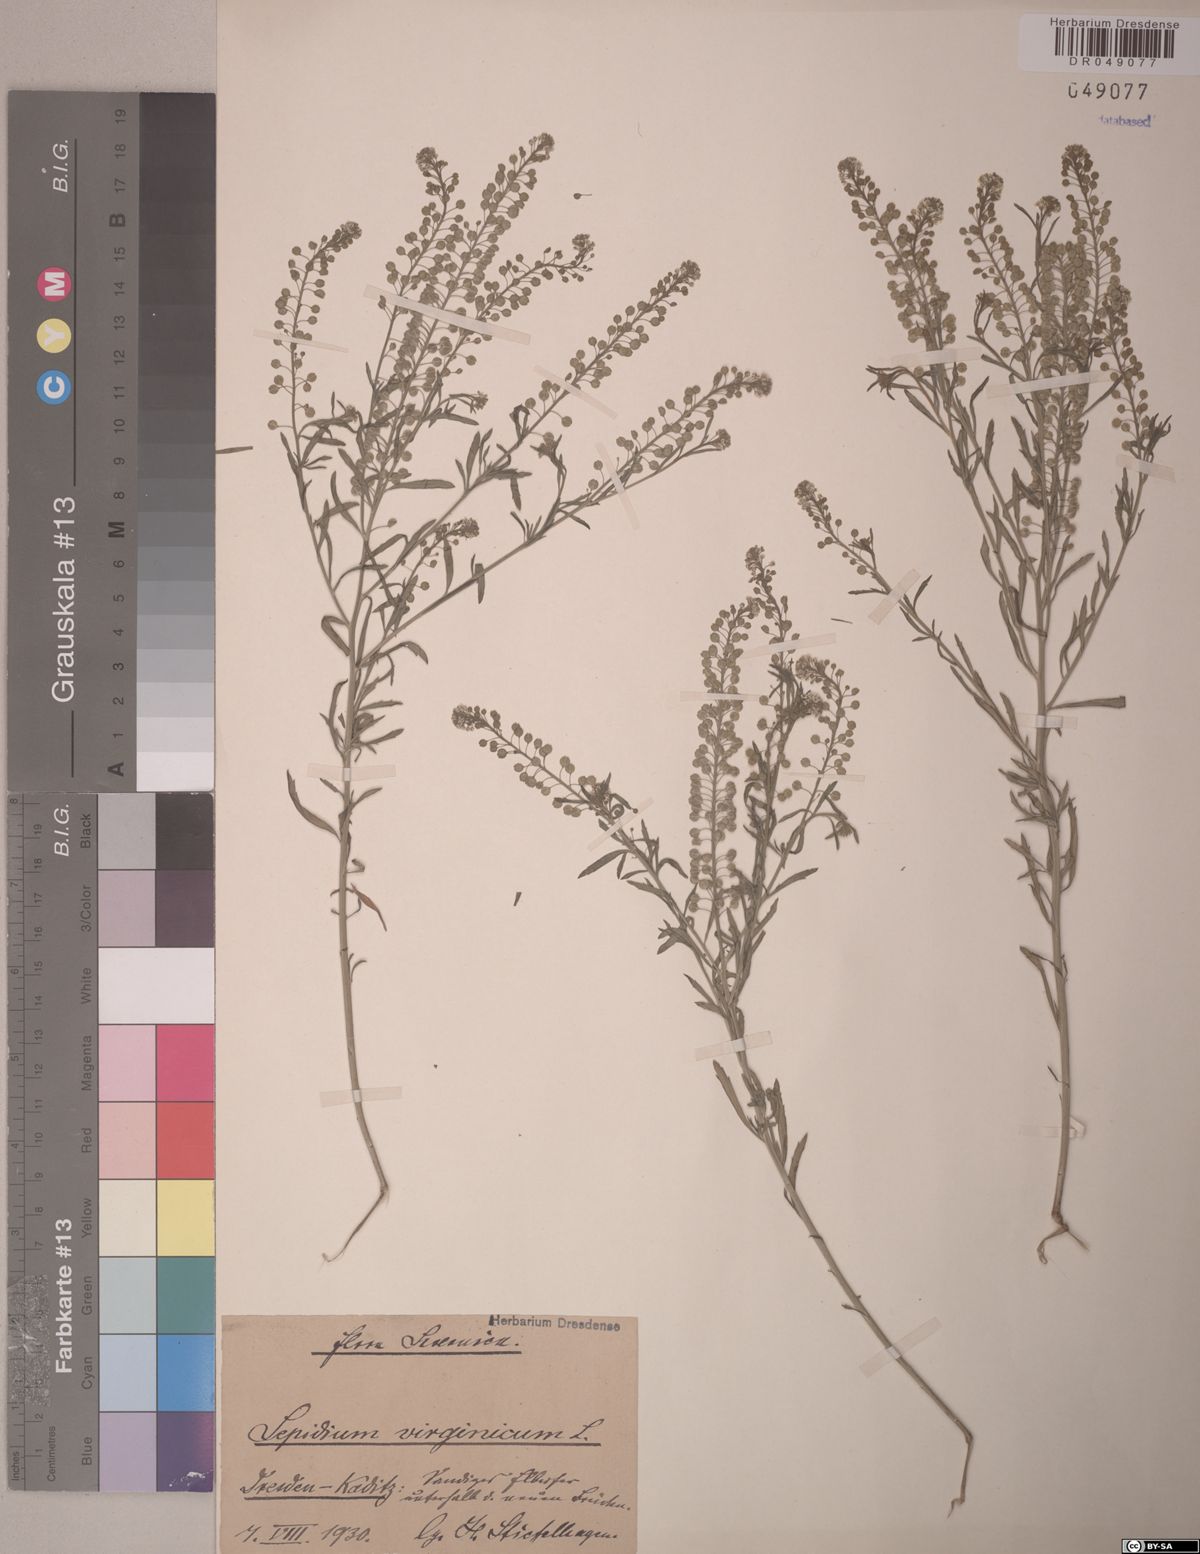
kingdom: Plantae
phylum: Tracheophyta
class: Magnoliopsida
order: Brassicales
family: Brassicaceae
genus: Lepidium
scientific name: Lepidium virginicum
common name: Least pepperwort
